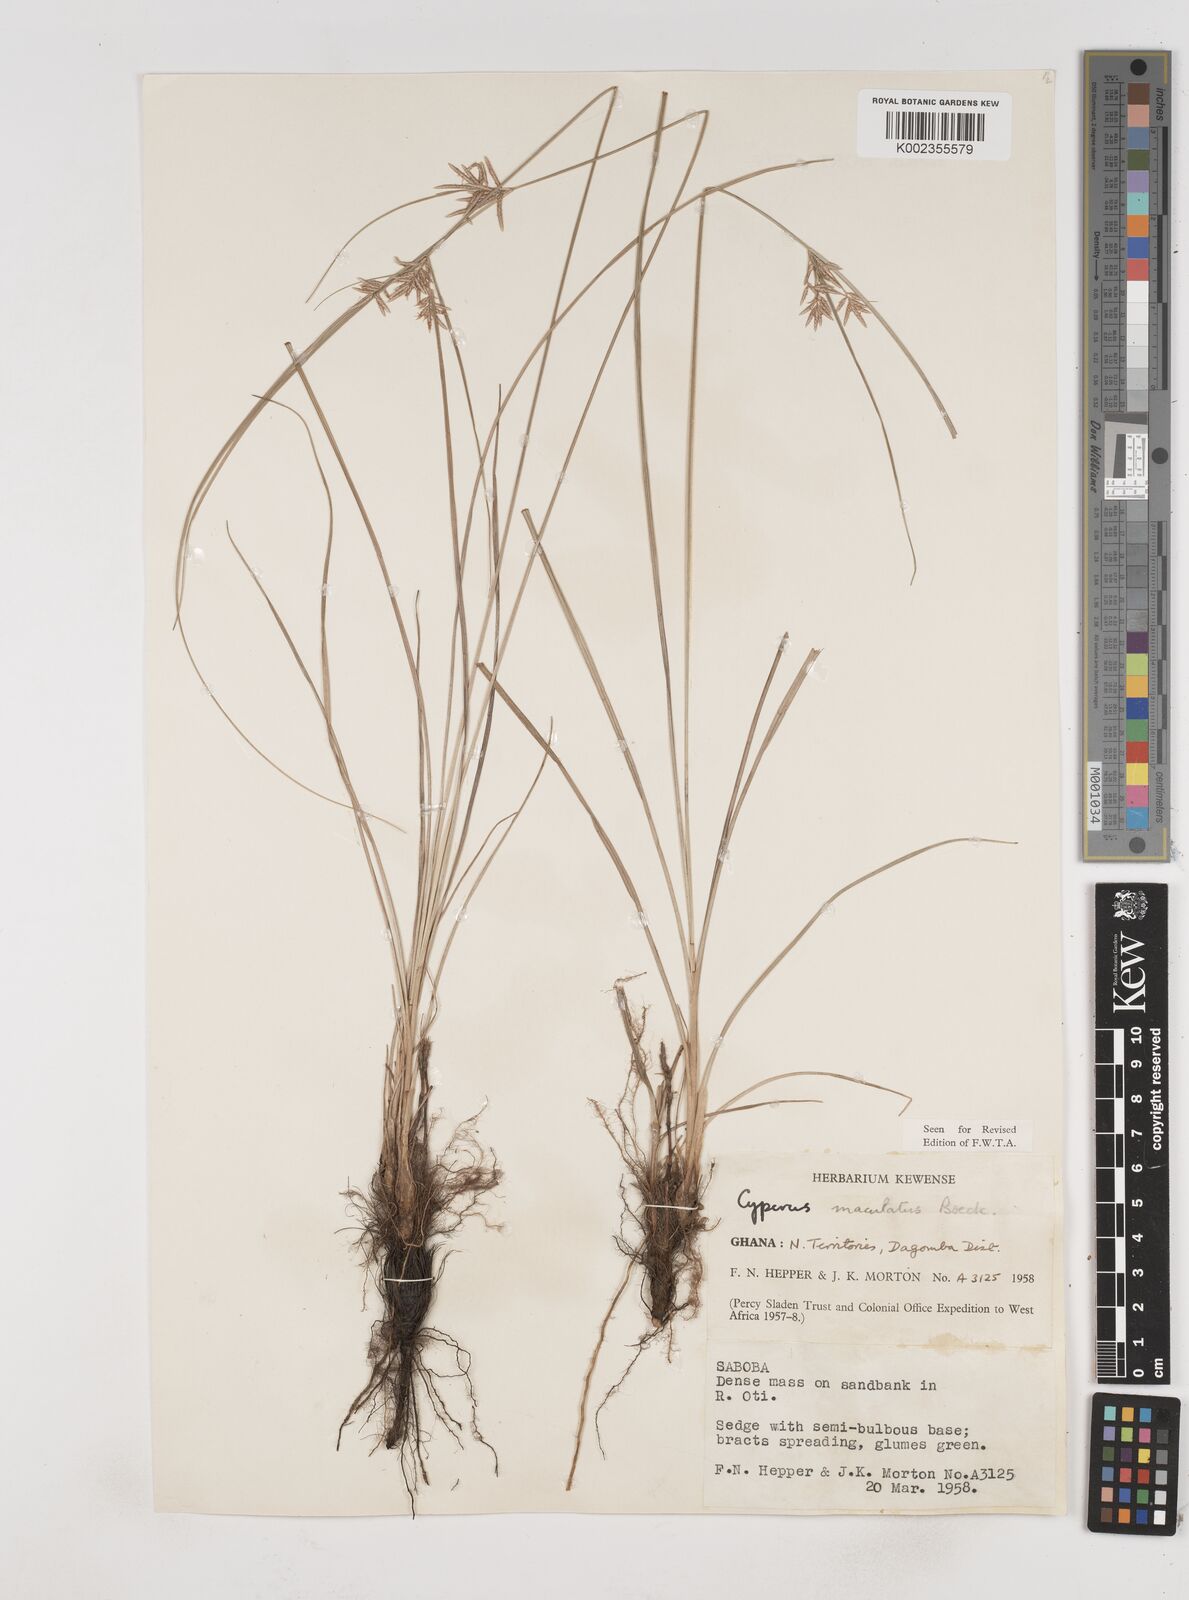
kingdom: Plantae
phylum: Tracheophyta
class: Liliopsida
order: Poales
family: Cyperaceae
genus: Cyperus
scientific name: Cyperus maculatus
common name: Maculated sedge
